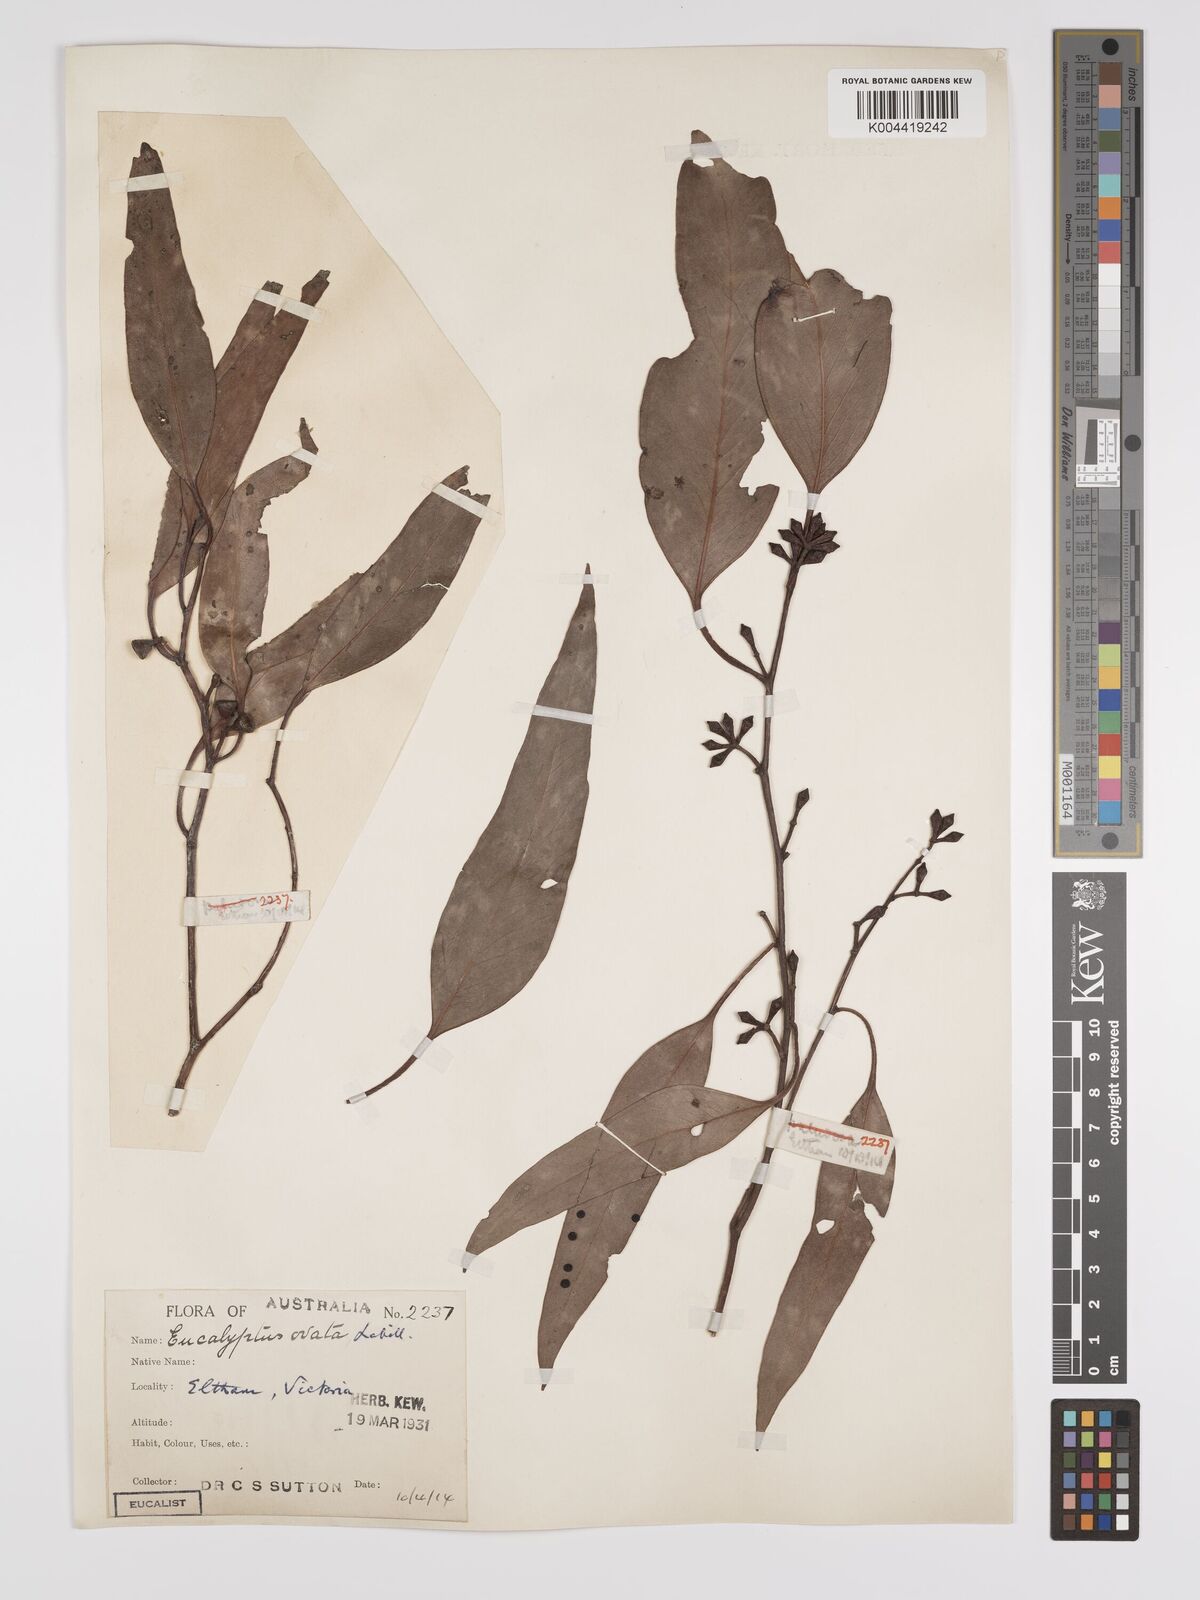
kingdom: Plantae
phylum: Tracheophyta
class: Magnoliopsida
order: Myrtales
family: Myrtaceae
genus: Eucalyptus
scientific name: Eucalyptus ovata
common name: Black-gum
